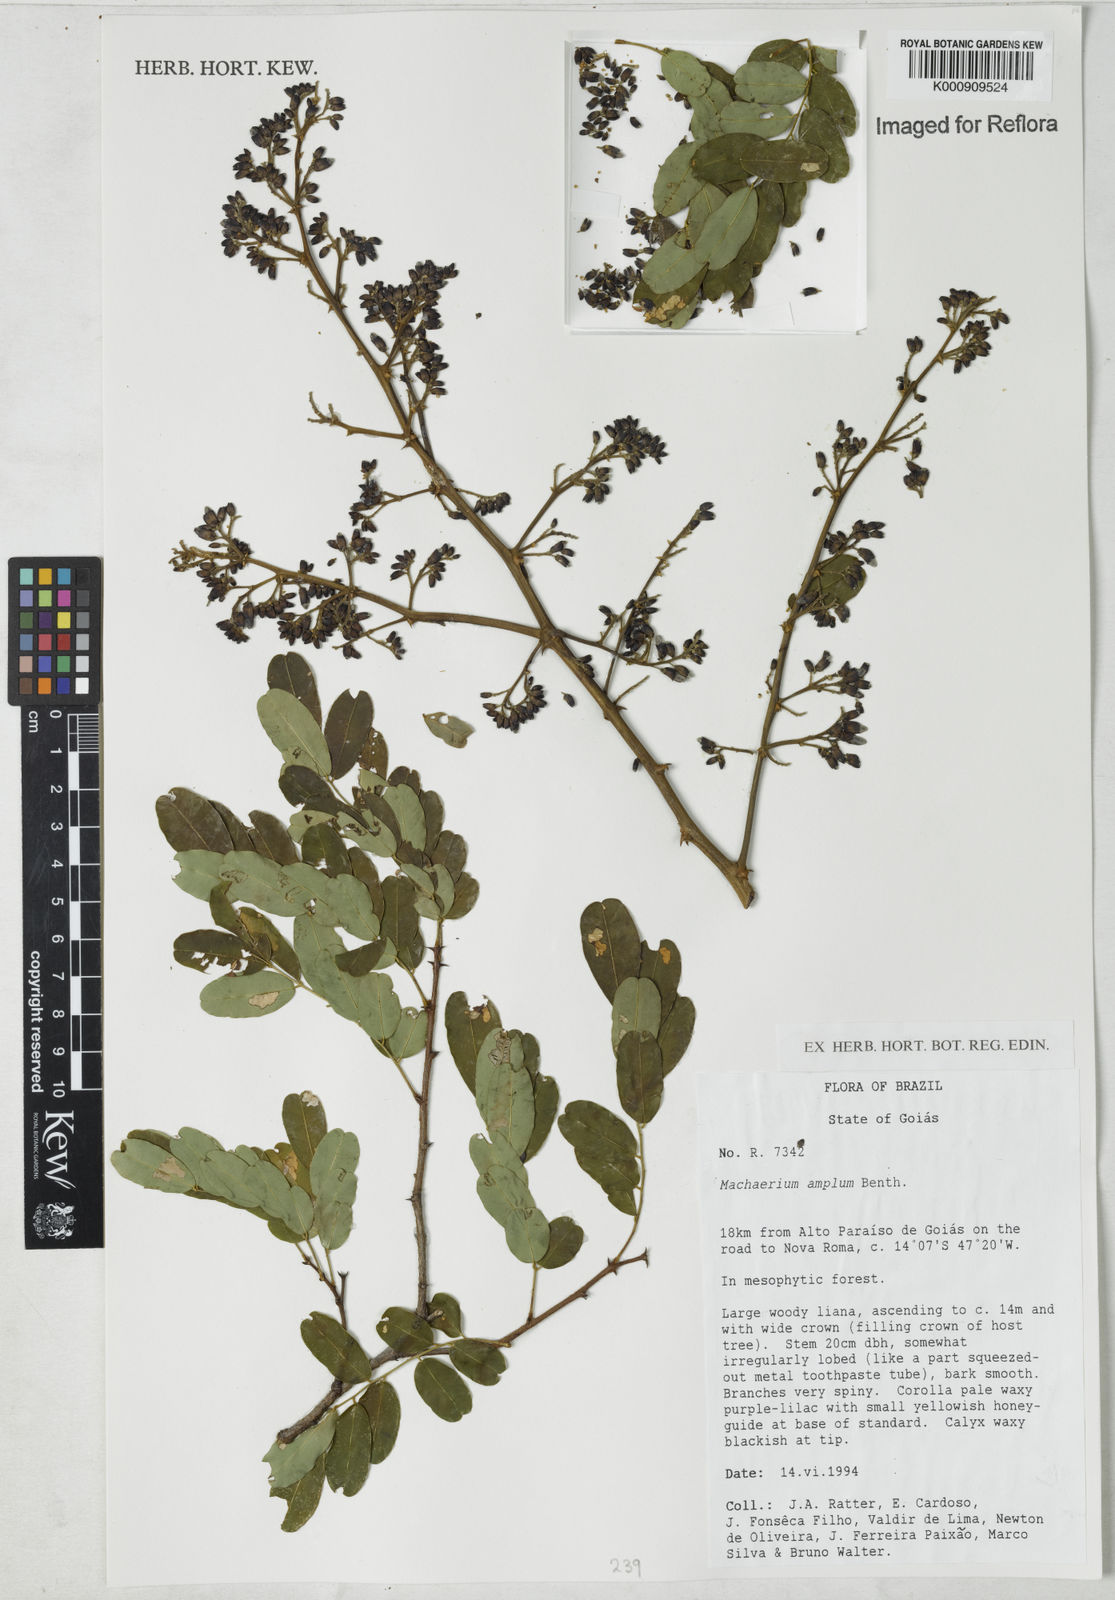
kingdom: Plantae
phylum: Tracheophyta
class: Magnoliopsida
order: Fabales
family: Fabaceae
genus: Machaerium
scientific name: Machaerium amplum
